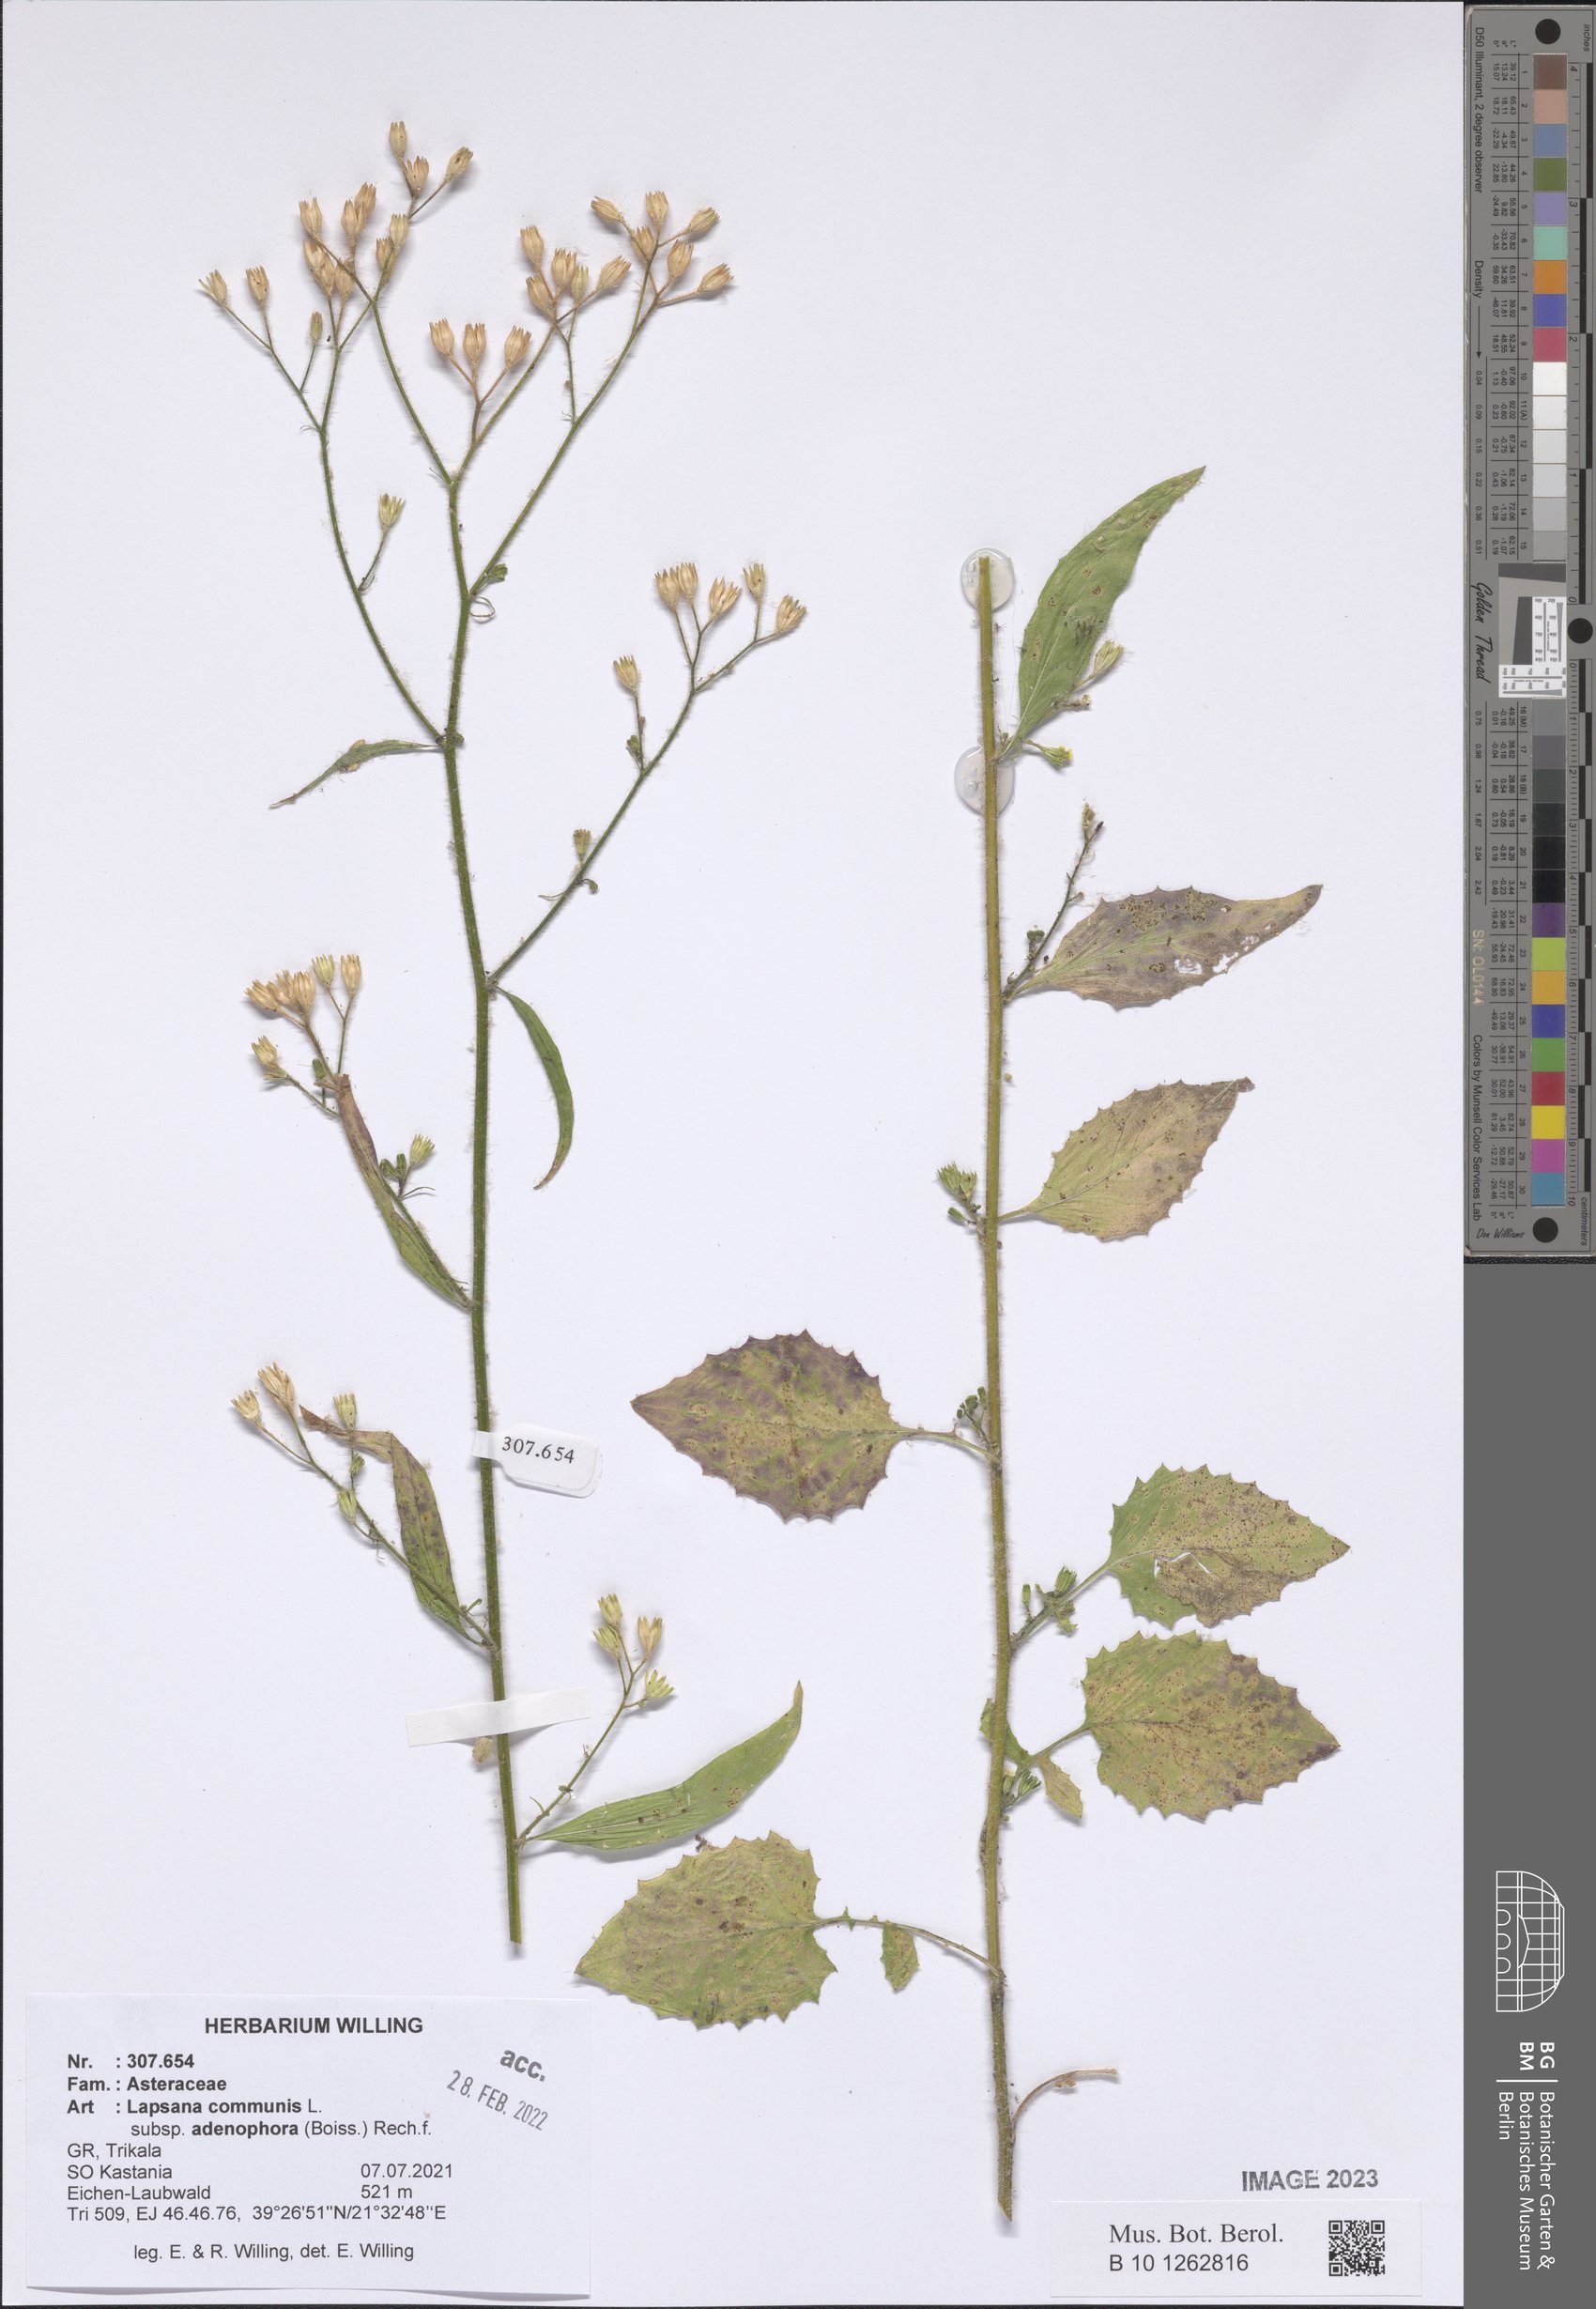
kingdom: Plantae
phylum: Tracheophyta
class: Magnoliopsida
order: Asterales
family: Asteraceae
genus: Lapsana
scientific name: Lapsana communis
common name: Nipplewort
